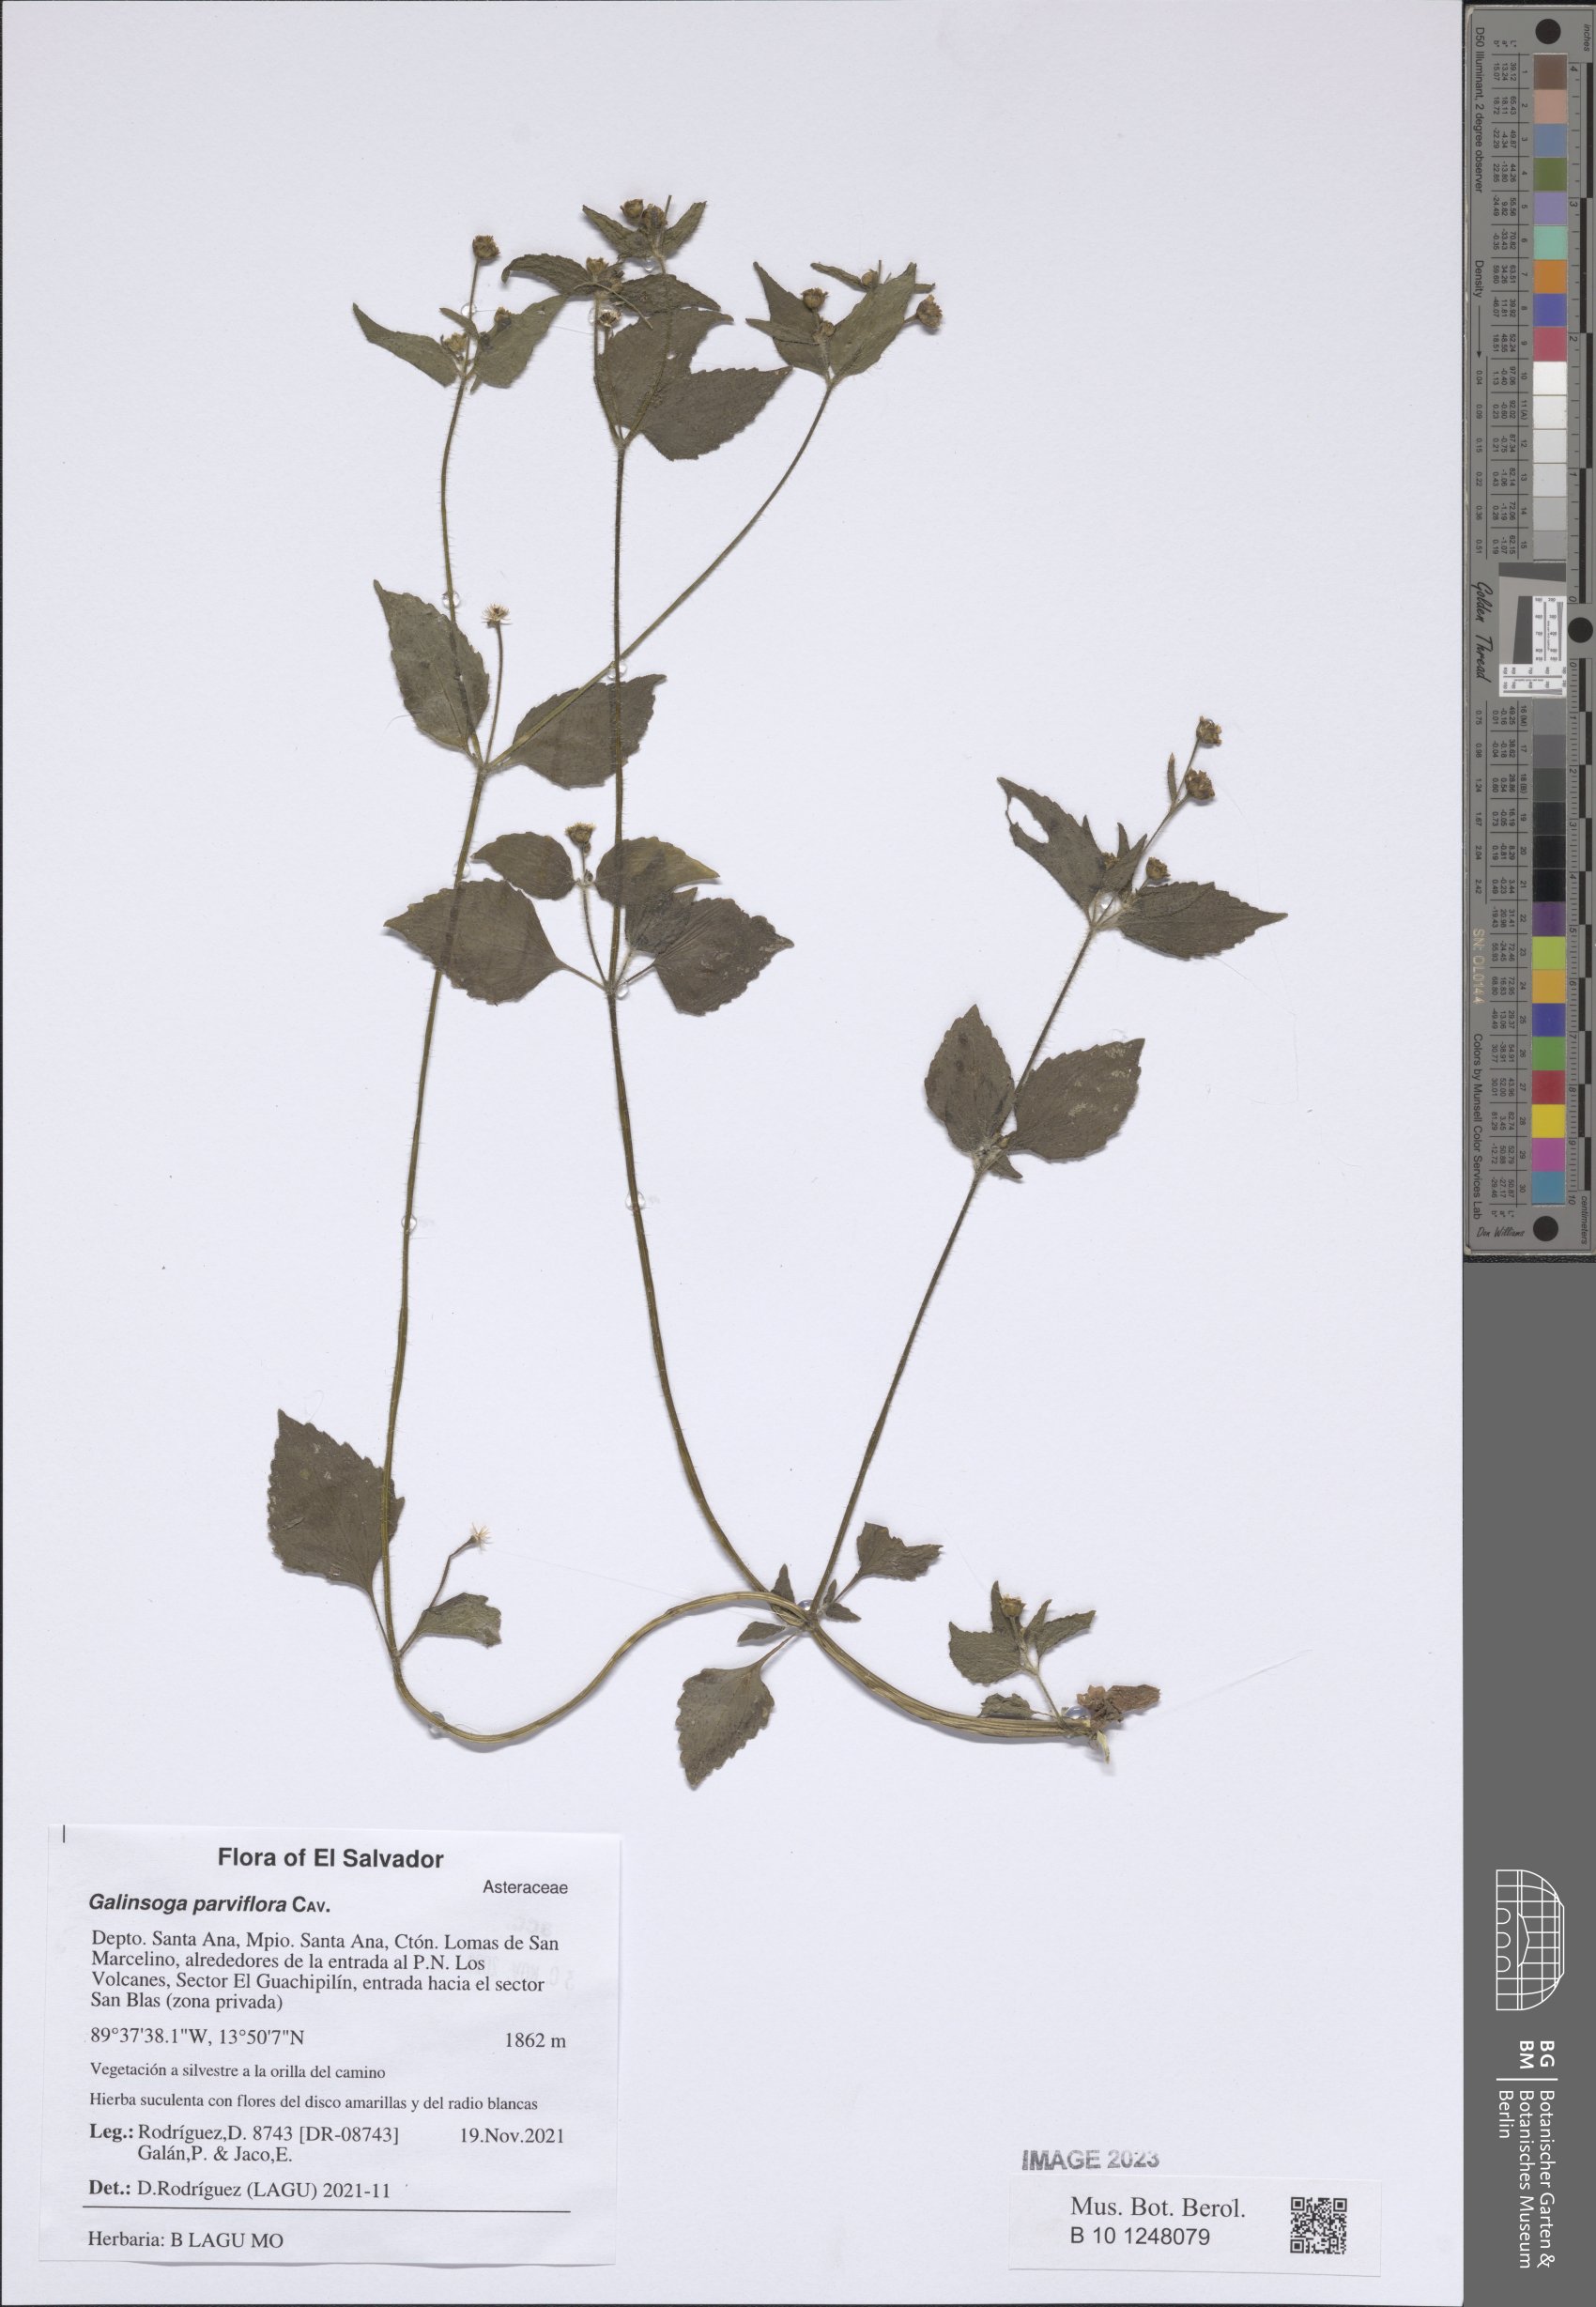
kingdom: Plantae
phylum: Tracheophyta
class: Magnoliopsida
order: Asterales
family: Asteraceae
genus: Galinsoga
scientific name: Galinsoga parviflora
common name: Gallant soldier
